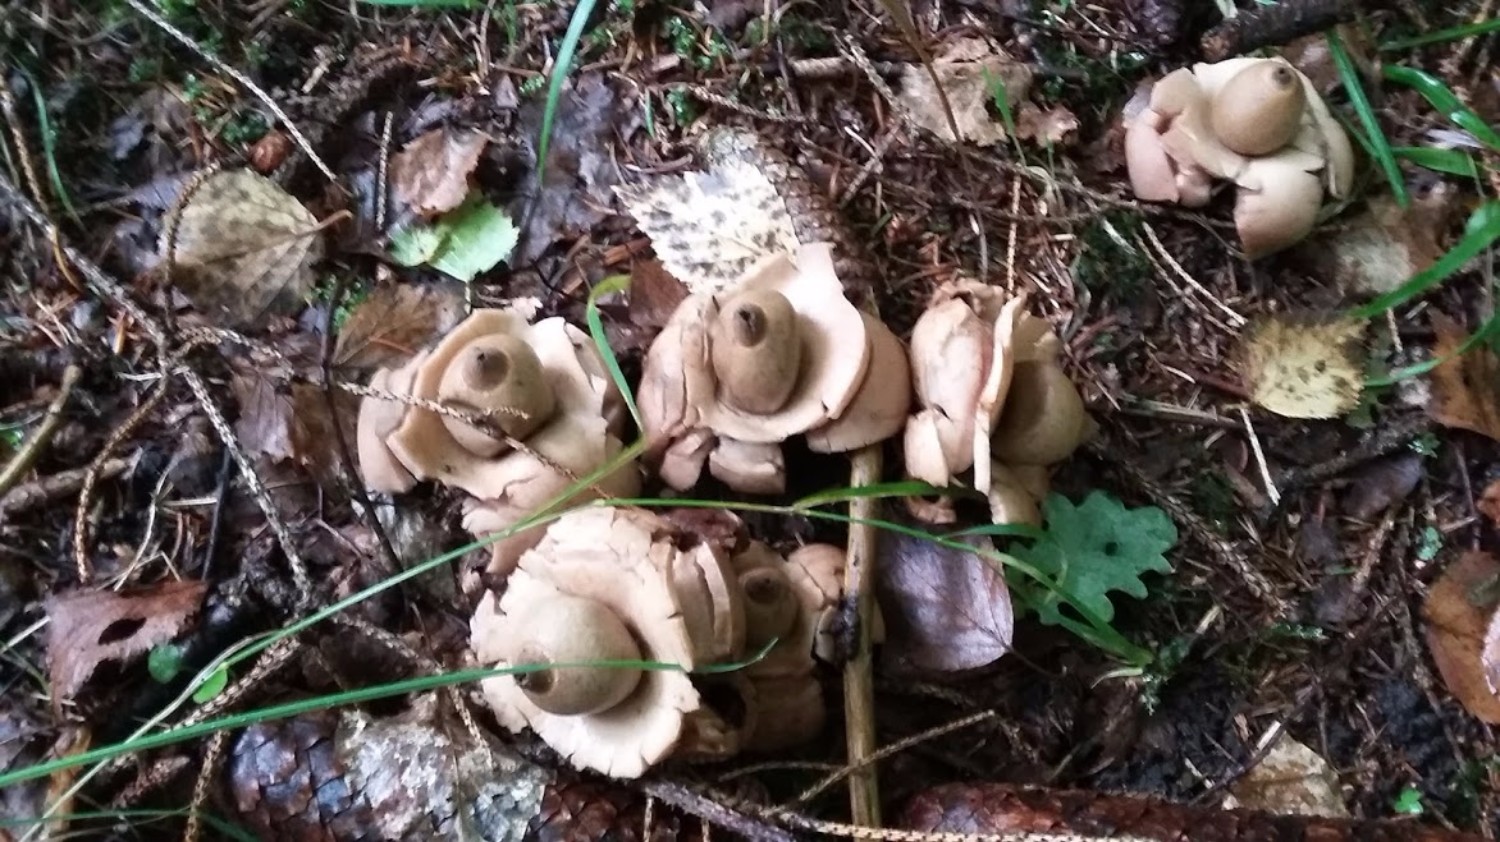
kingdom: Fungi
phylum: Basidiomycota
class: Agaricomycetes
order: Geastrales
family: Geastraceae
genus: Geastrum
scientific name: Geastrum michelianum
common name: kødet stjernebold
